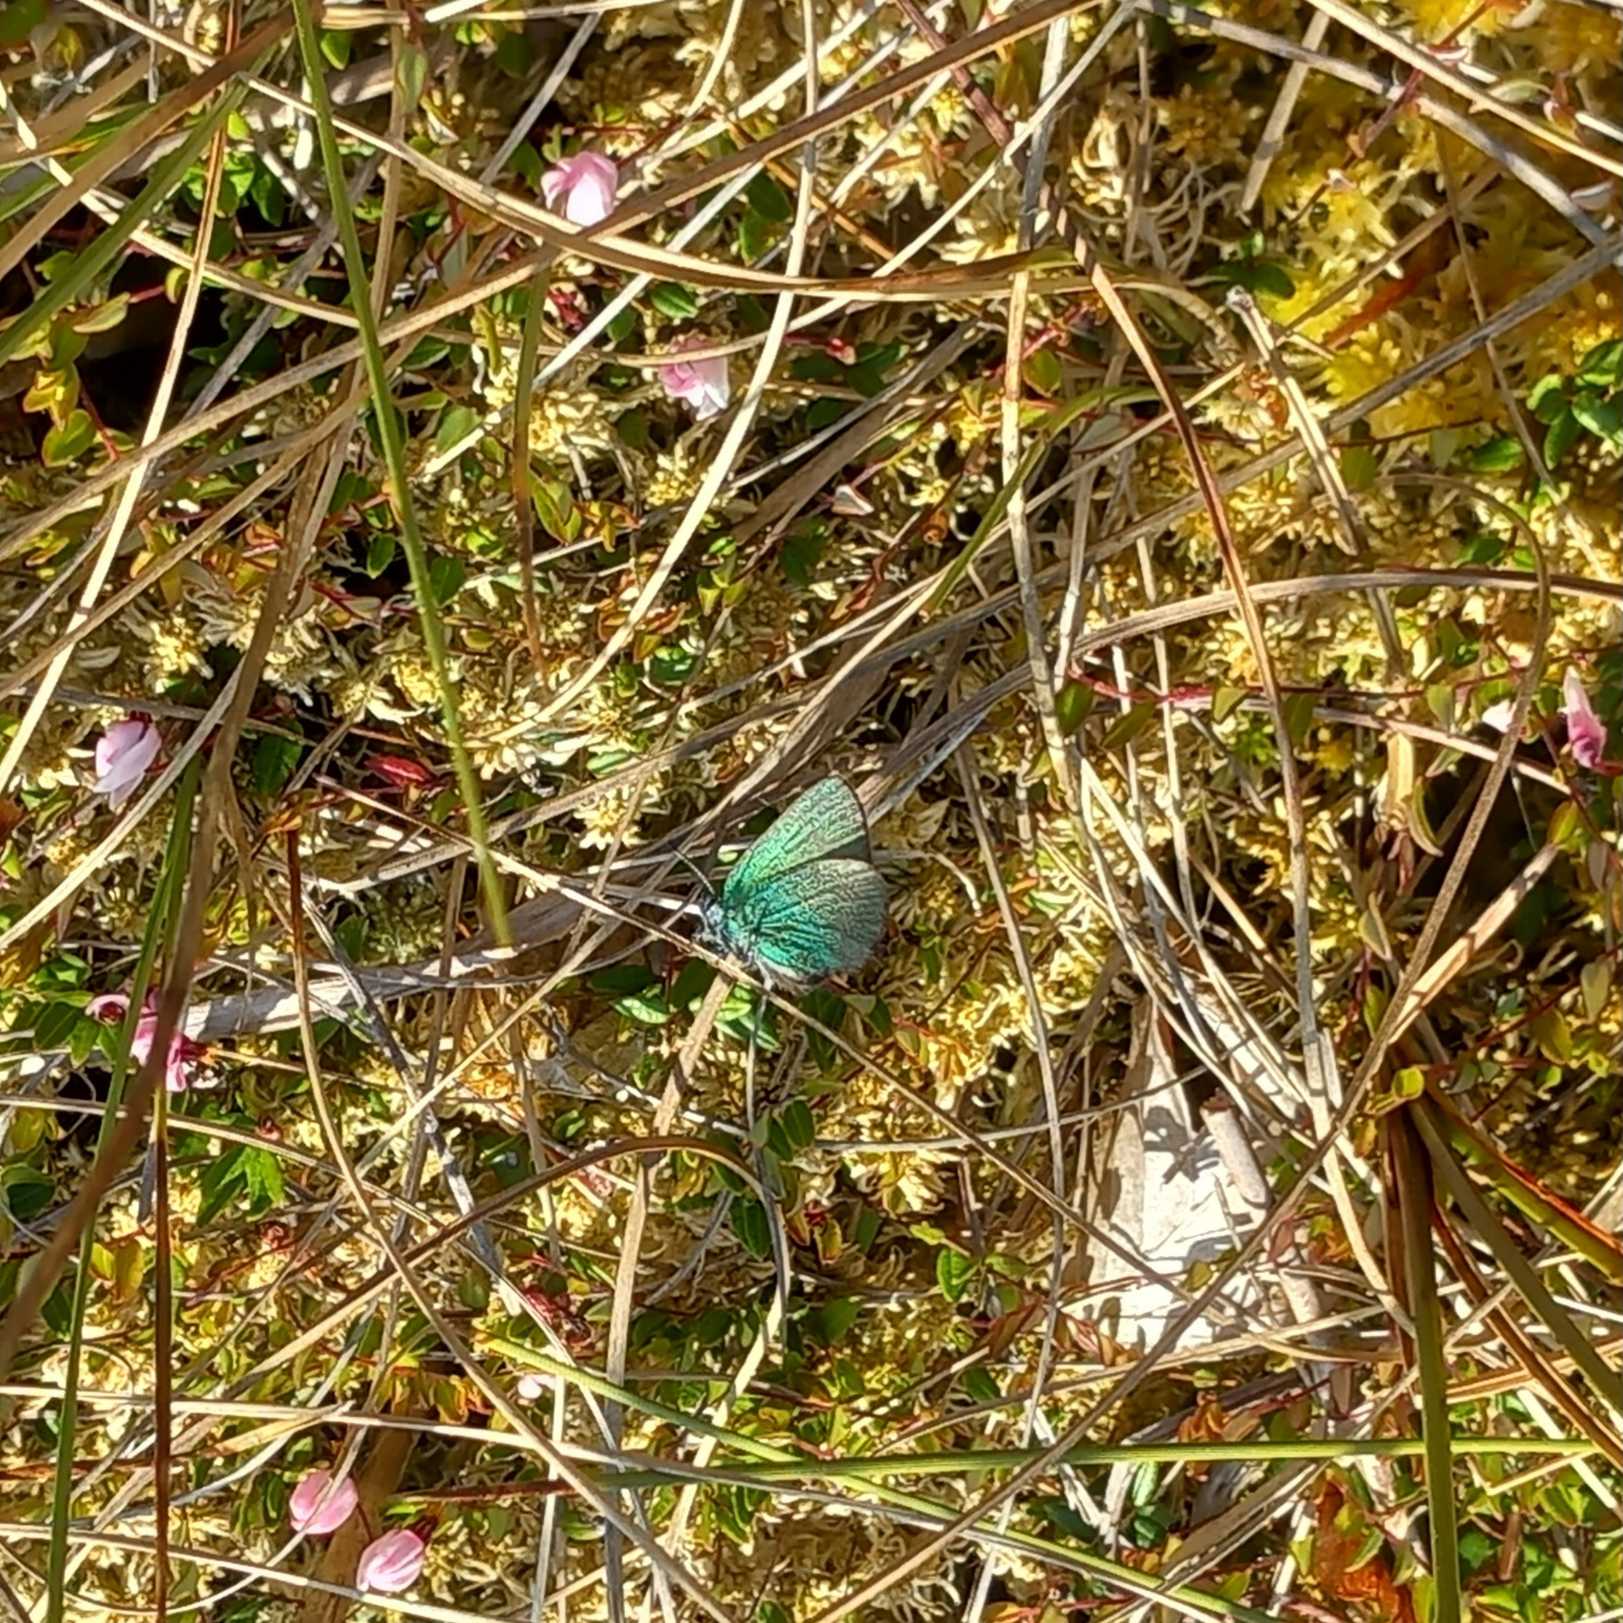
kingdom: Animalia
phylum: Arthropoda
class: Insecta
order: Lepidoptera
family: Lycaenidae
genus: Callophrys
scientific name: Callophrys rubi
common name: Grøn busksommerfugl
